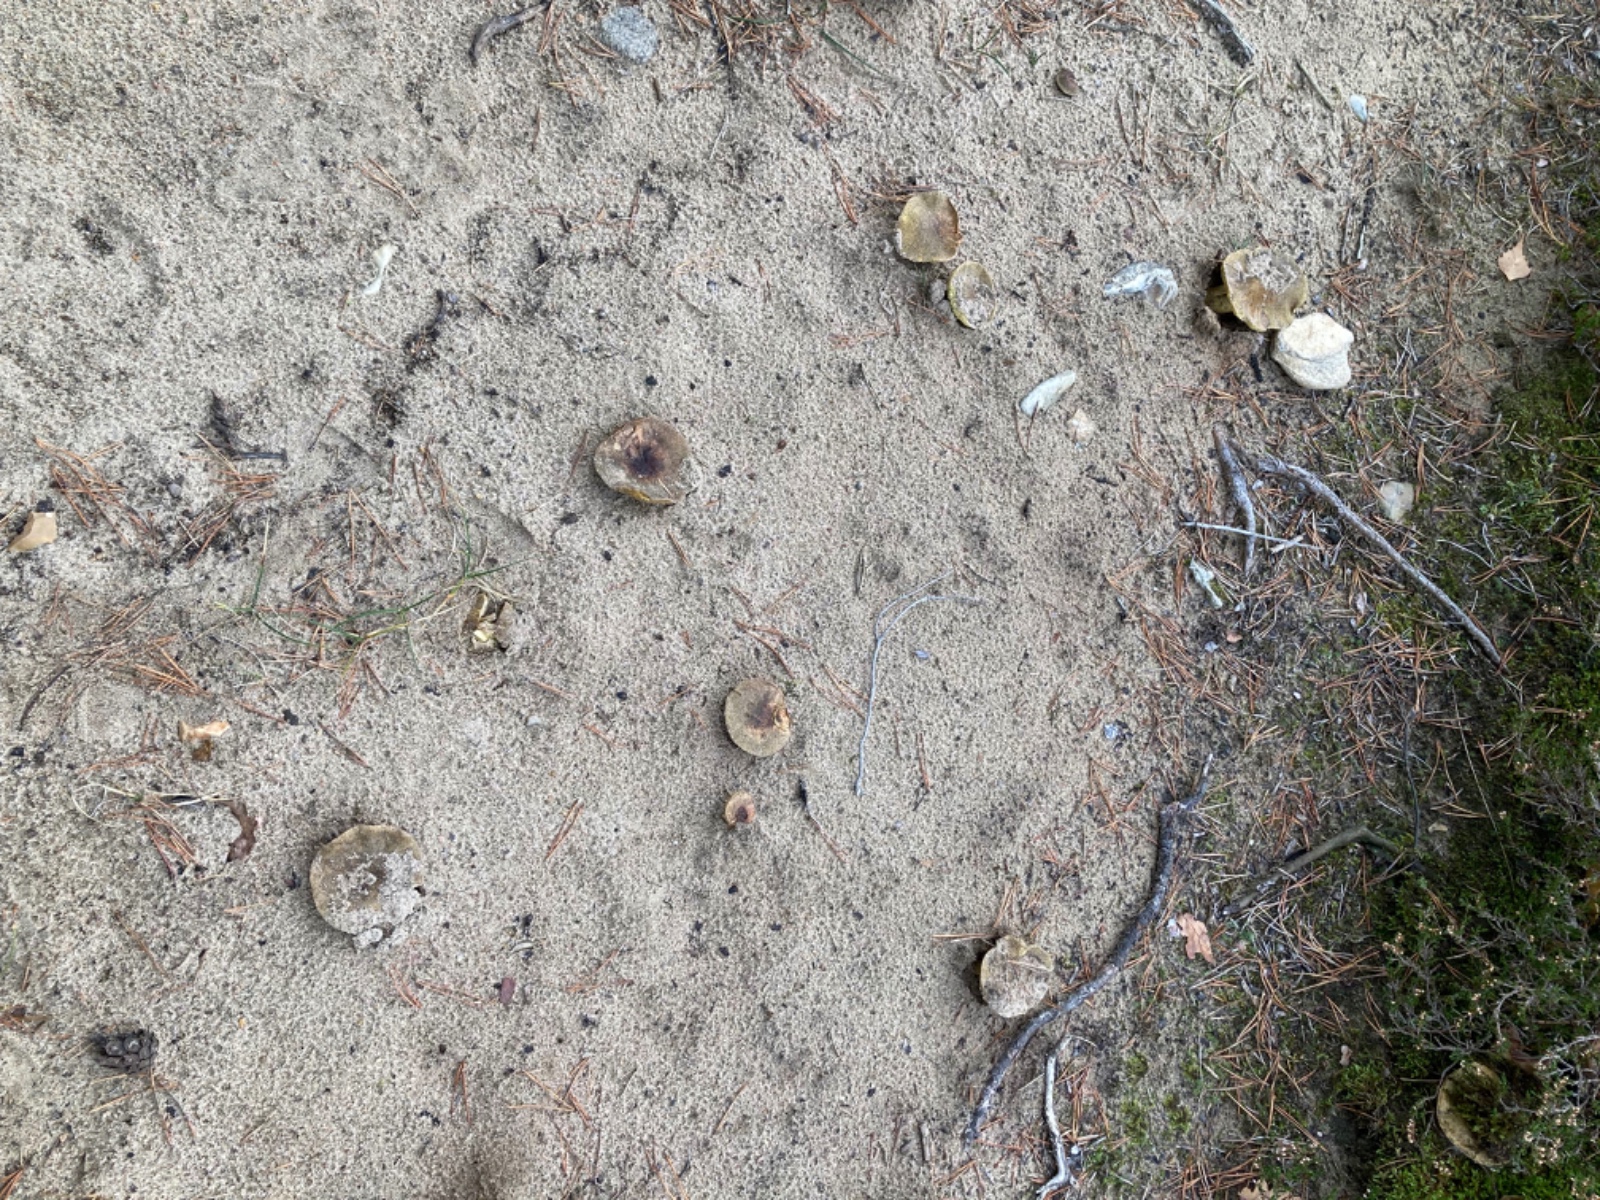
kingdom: Fungi
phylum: Basidiomycota
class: Agaricomycetes
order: Agaricales
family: Tricholomataceae
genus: Tricholoma
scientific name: Tricholoma equestre
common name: ægte ridderhat
